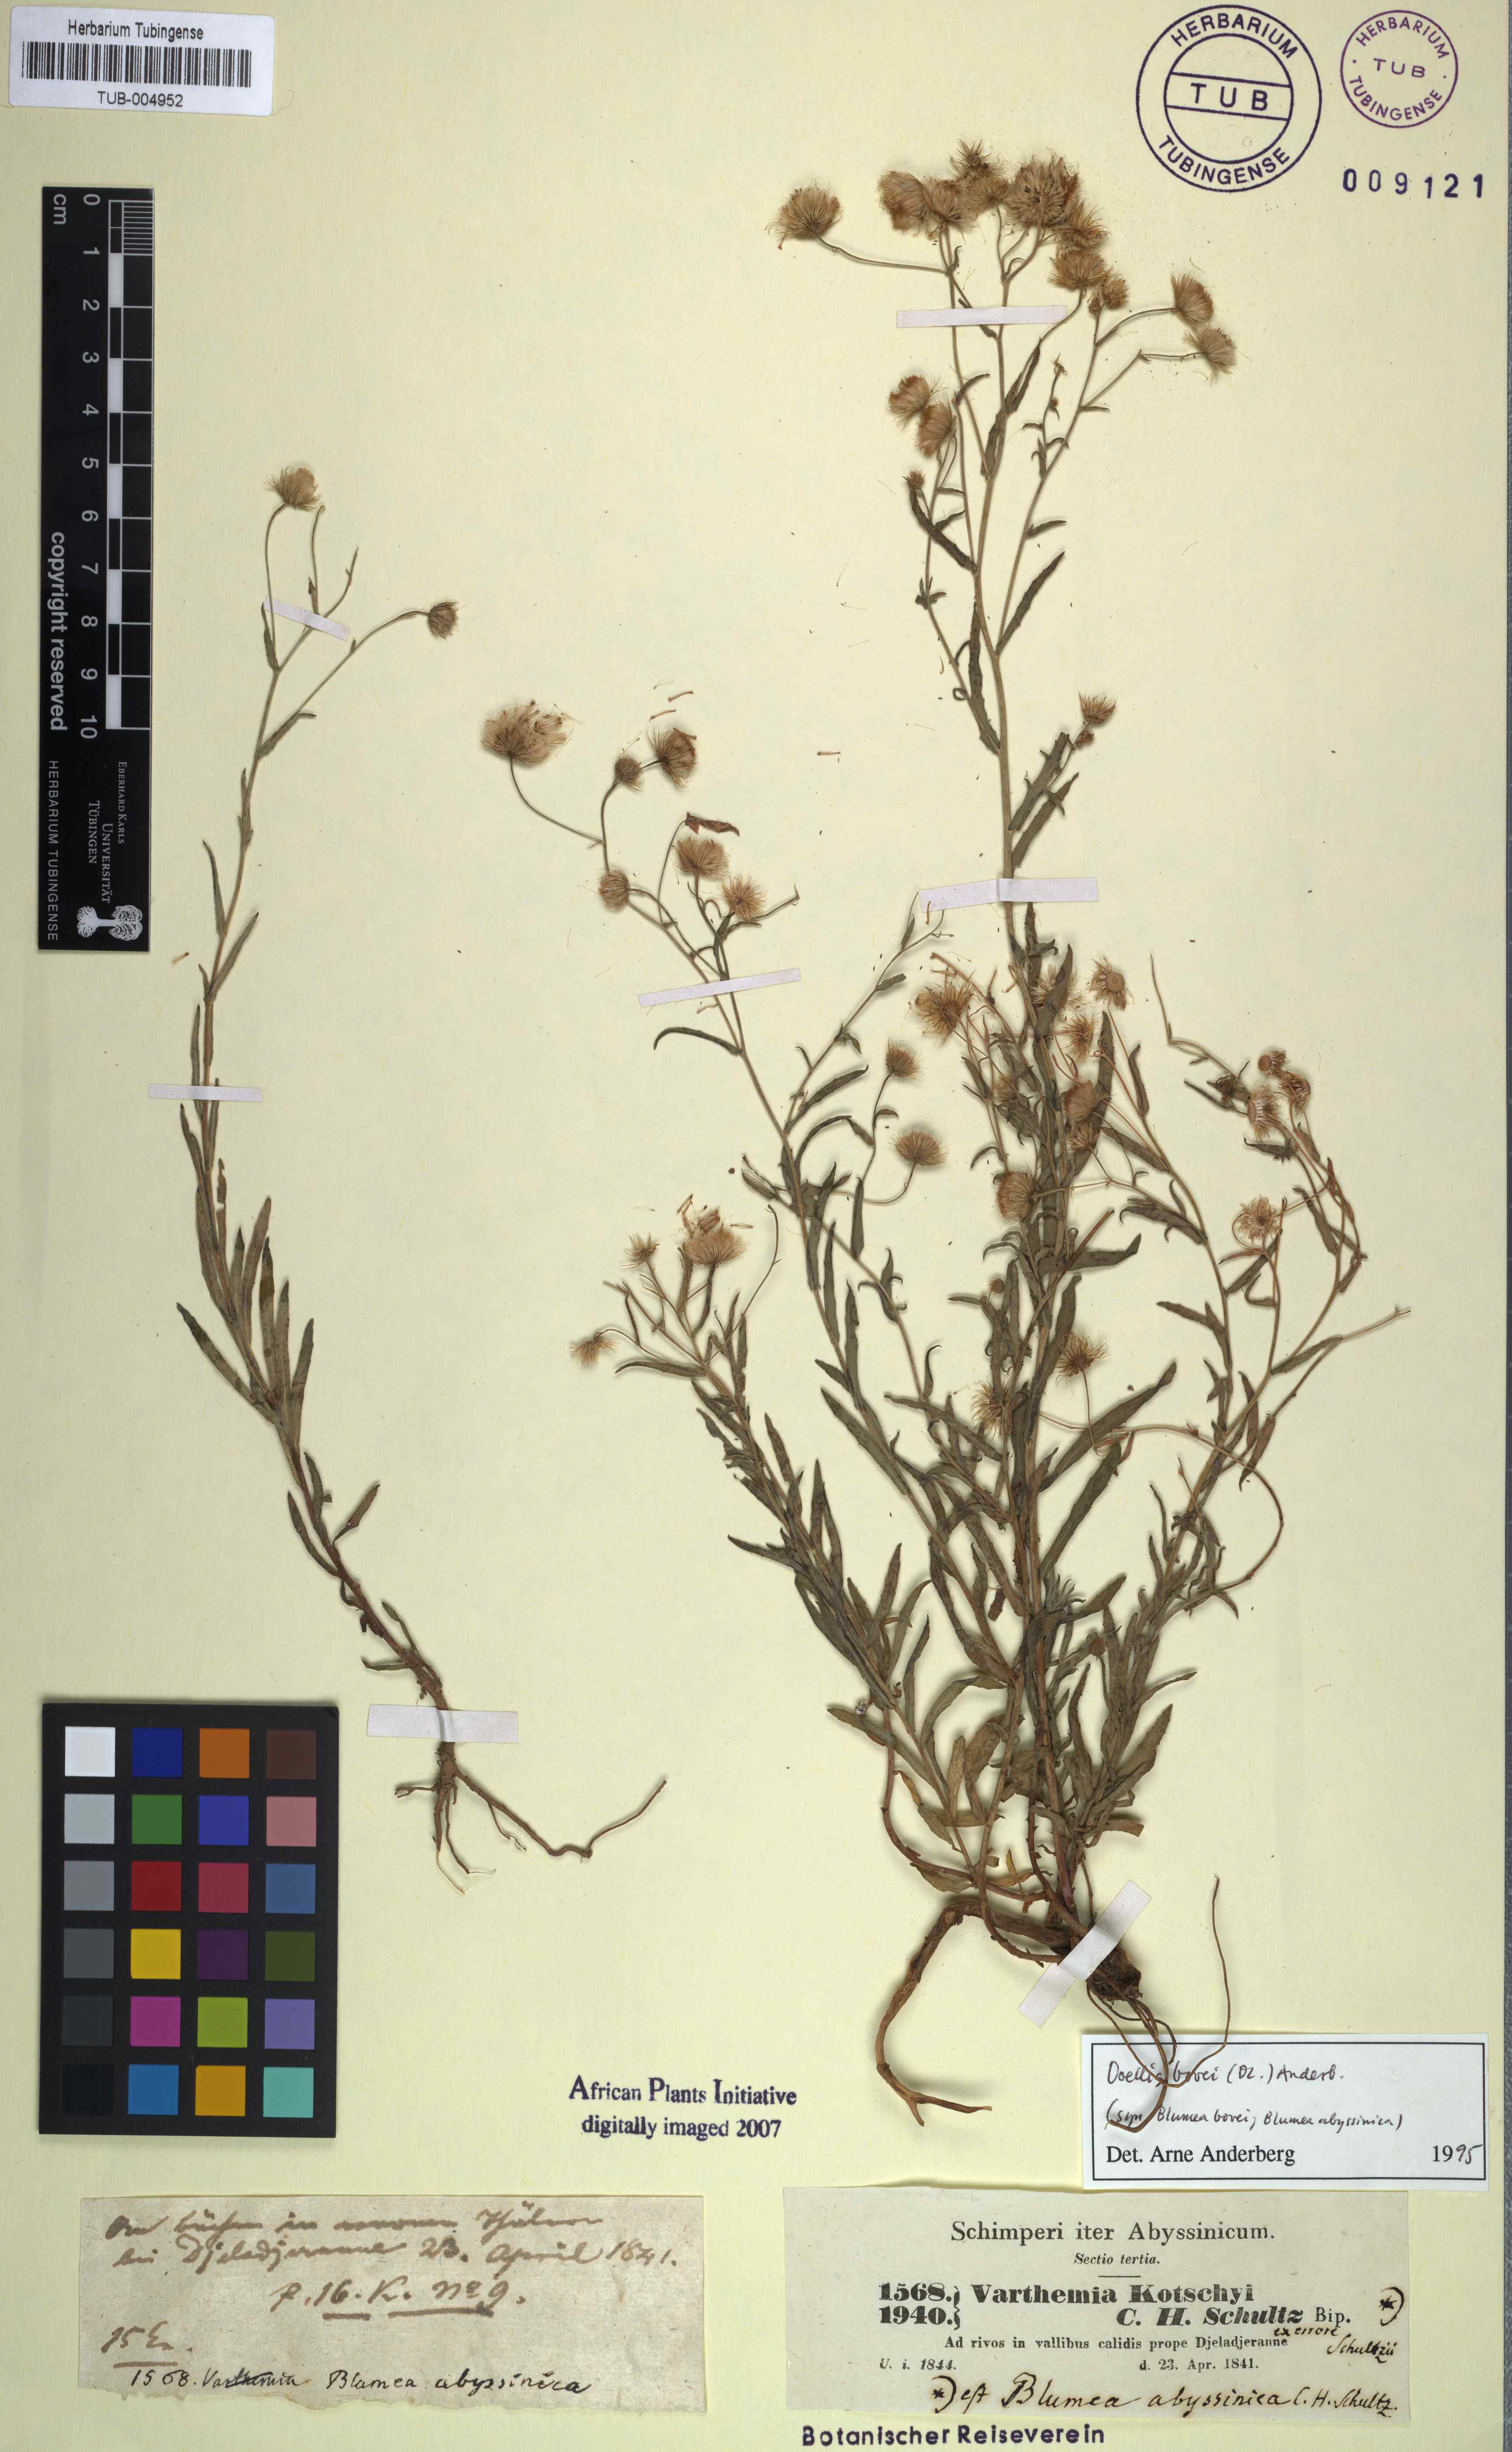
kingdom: Plantae
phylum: Tracheophyta
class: Magnoliopsida
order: Asterales
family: Asteraceae
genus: Doellia
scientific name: Doellia bovei
